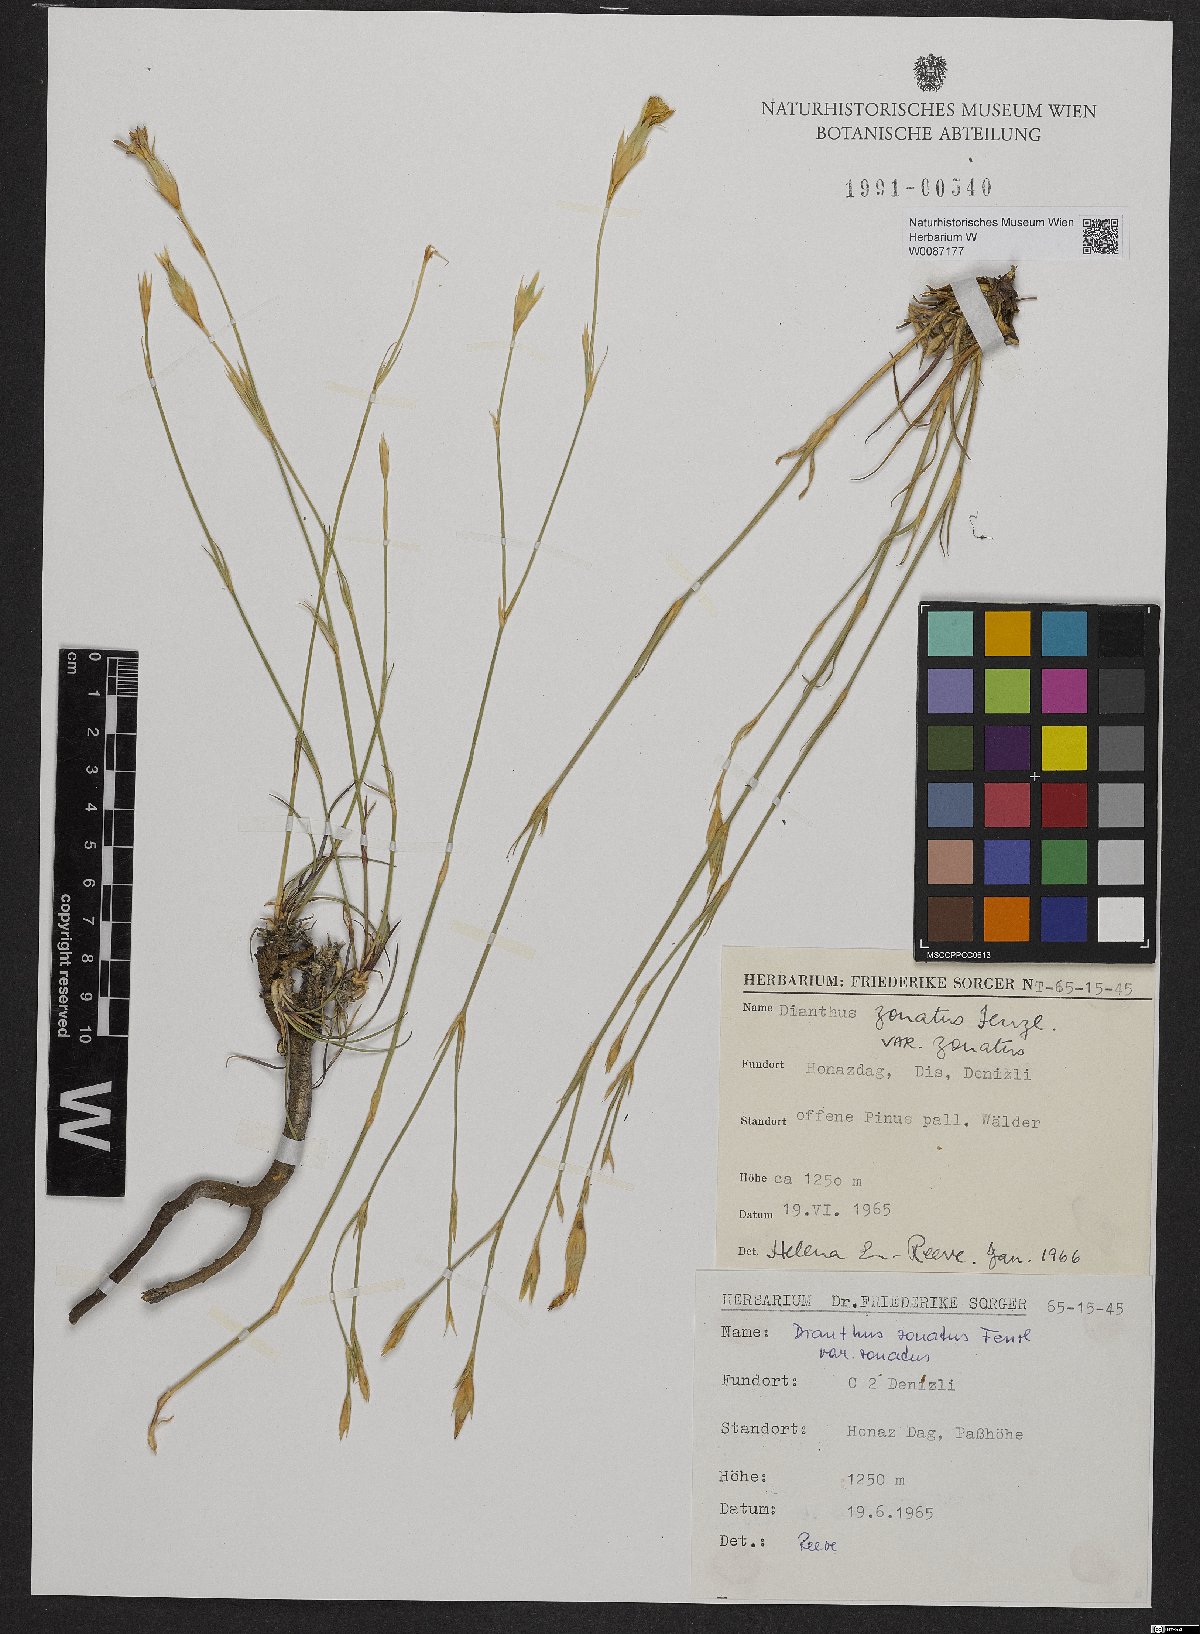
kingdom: Plantae
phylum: Tracheophyta
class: Magnoliopsida
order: Caryophyllales
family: Caryophyllaceae
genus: Dianthus
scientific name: Dianthus zonatus
